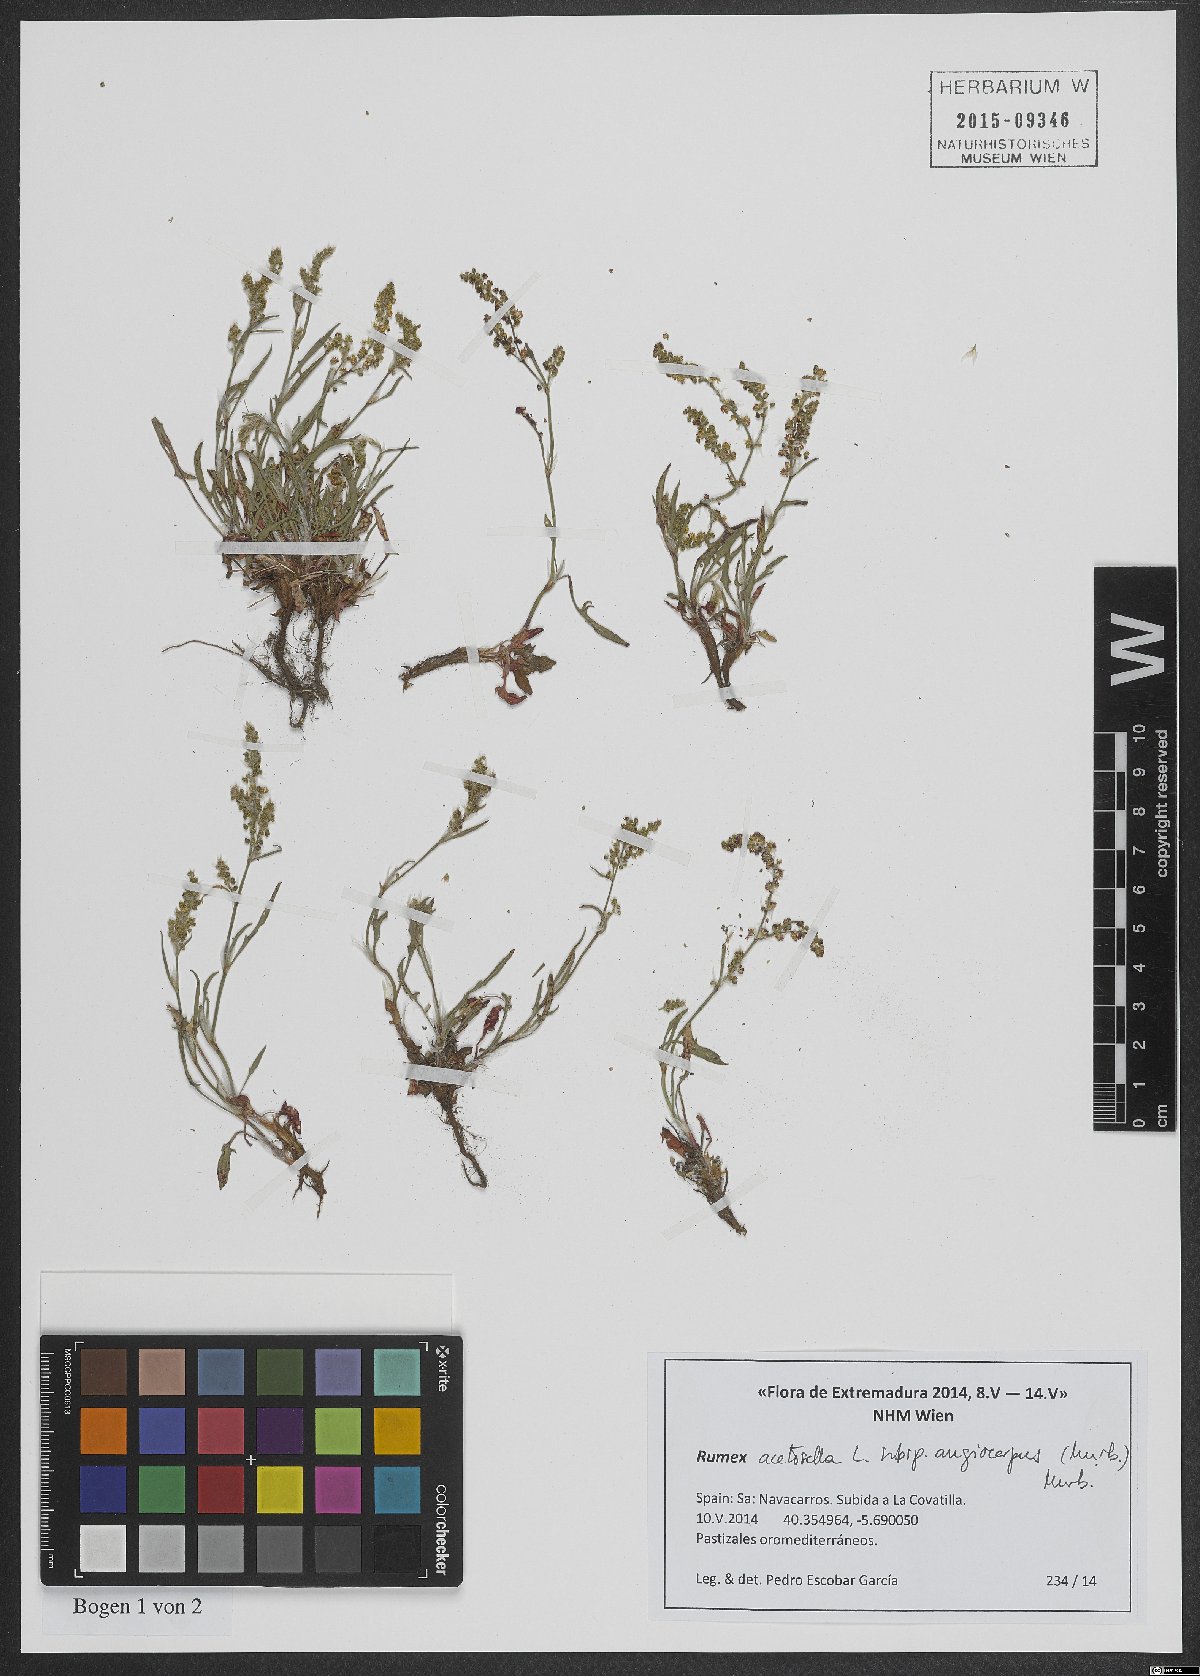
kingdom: Plantae
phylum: Tracheophyta
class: Magnoliopsida
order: Caryophyllales
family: Polygonaceae
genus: Rumex
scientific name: Rumex acetosella
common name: Common sheep sorrel
